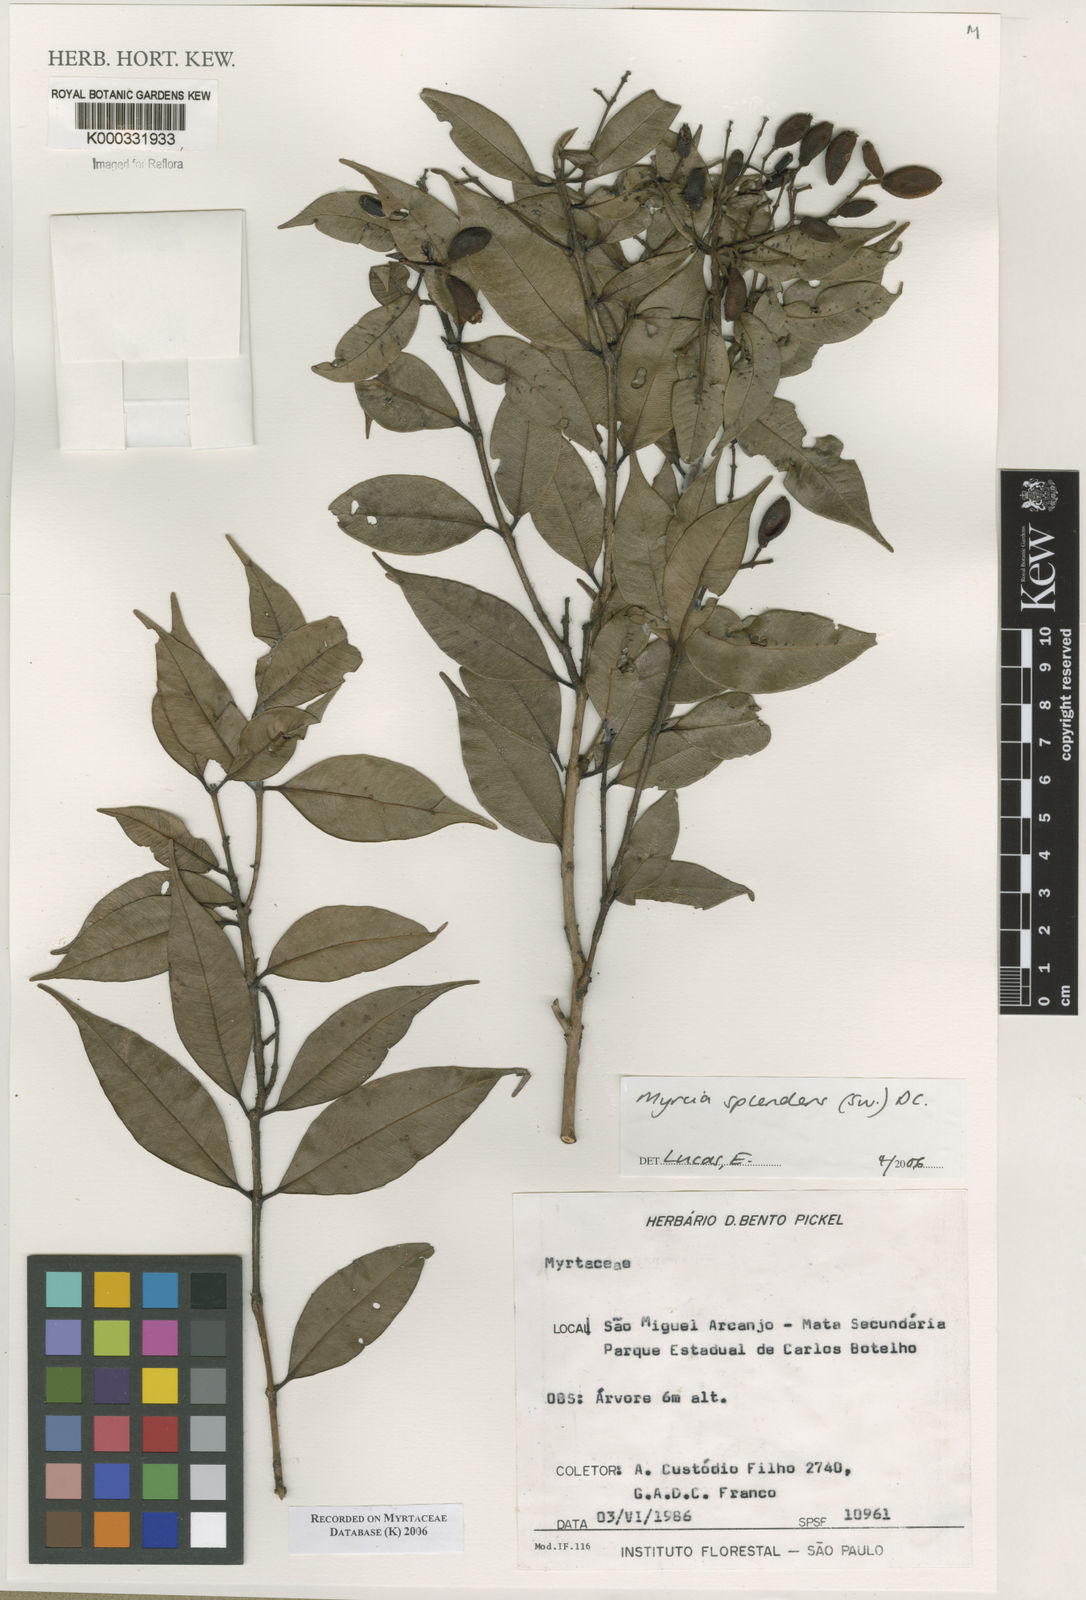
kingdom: Plantae
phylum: Tracheophyta
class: Magnoliopsida
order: Myrtales
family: Myrtaceae
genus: Myrcia
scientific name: Myrcia splendens
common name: Surinam cherry
